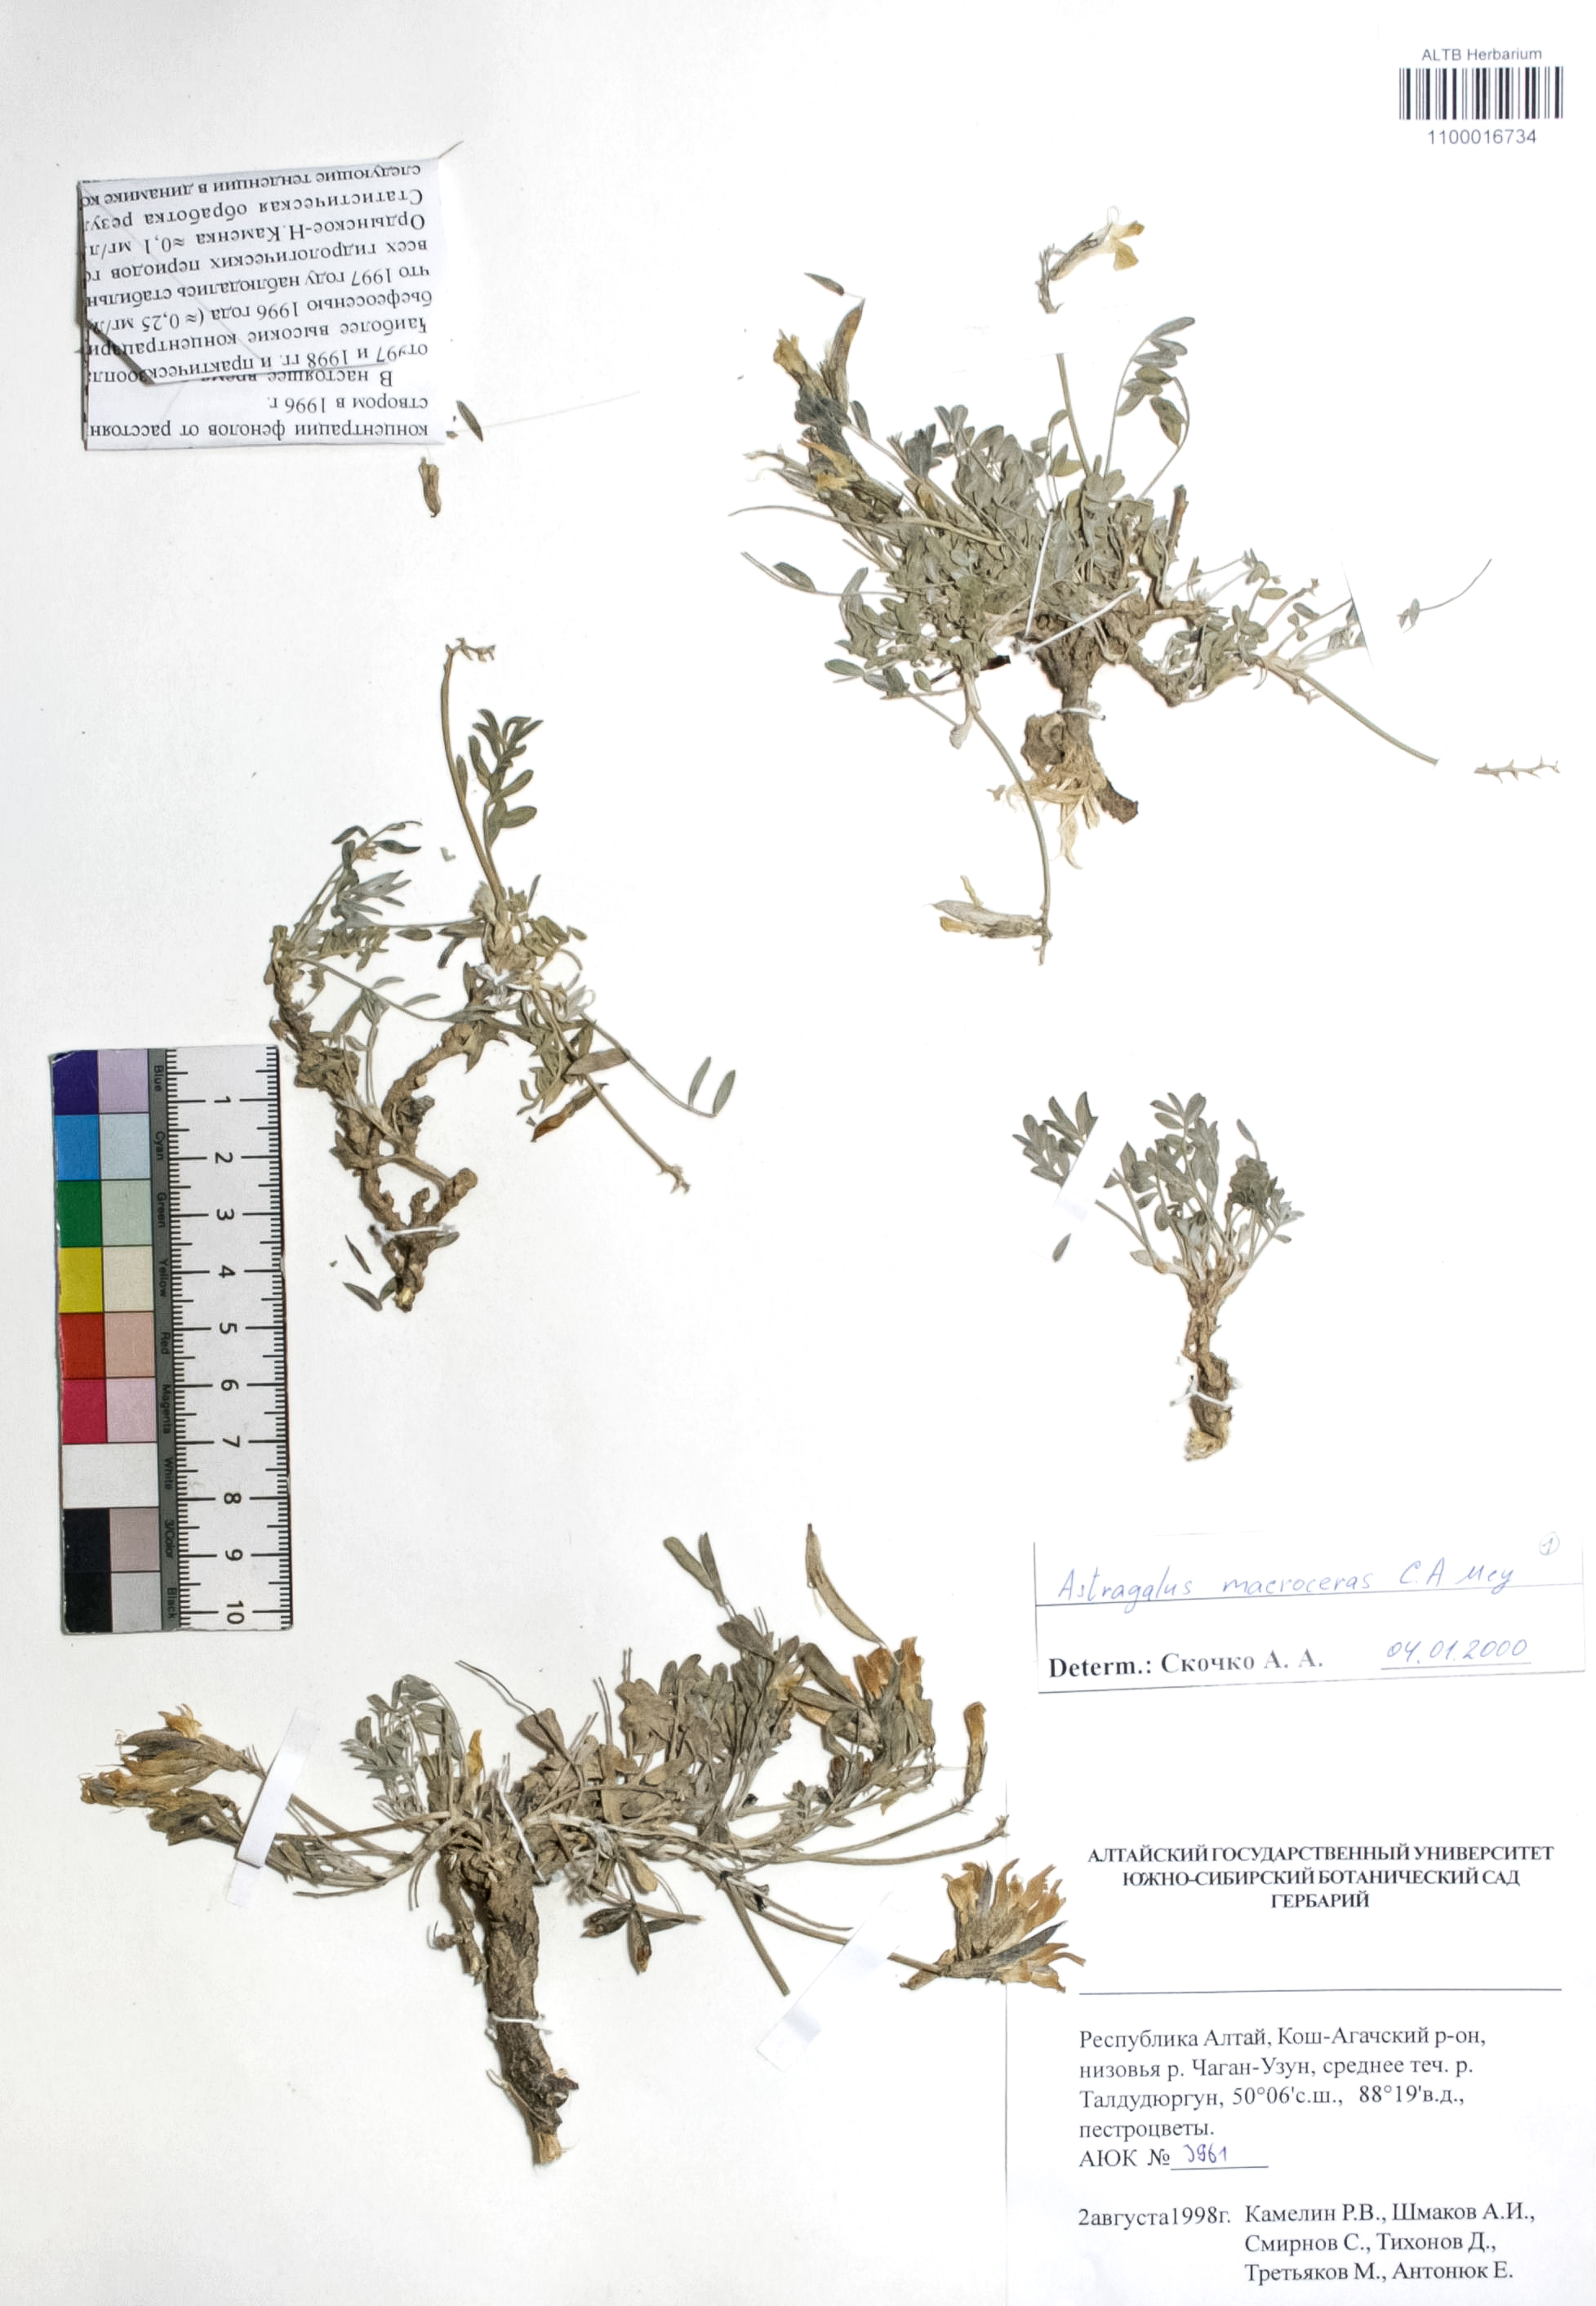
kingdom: Plantae
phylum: Tracheophyta
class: Magnoliopsida
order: Fabales
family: Fabaceae
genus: Astragalus
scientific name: Astragalus macroceras
